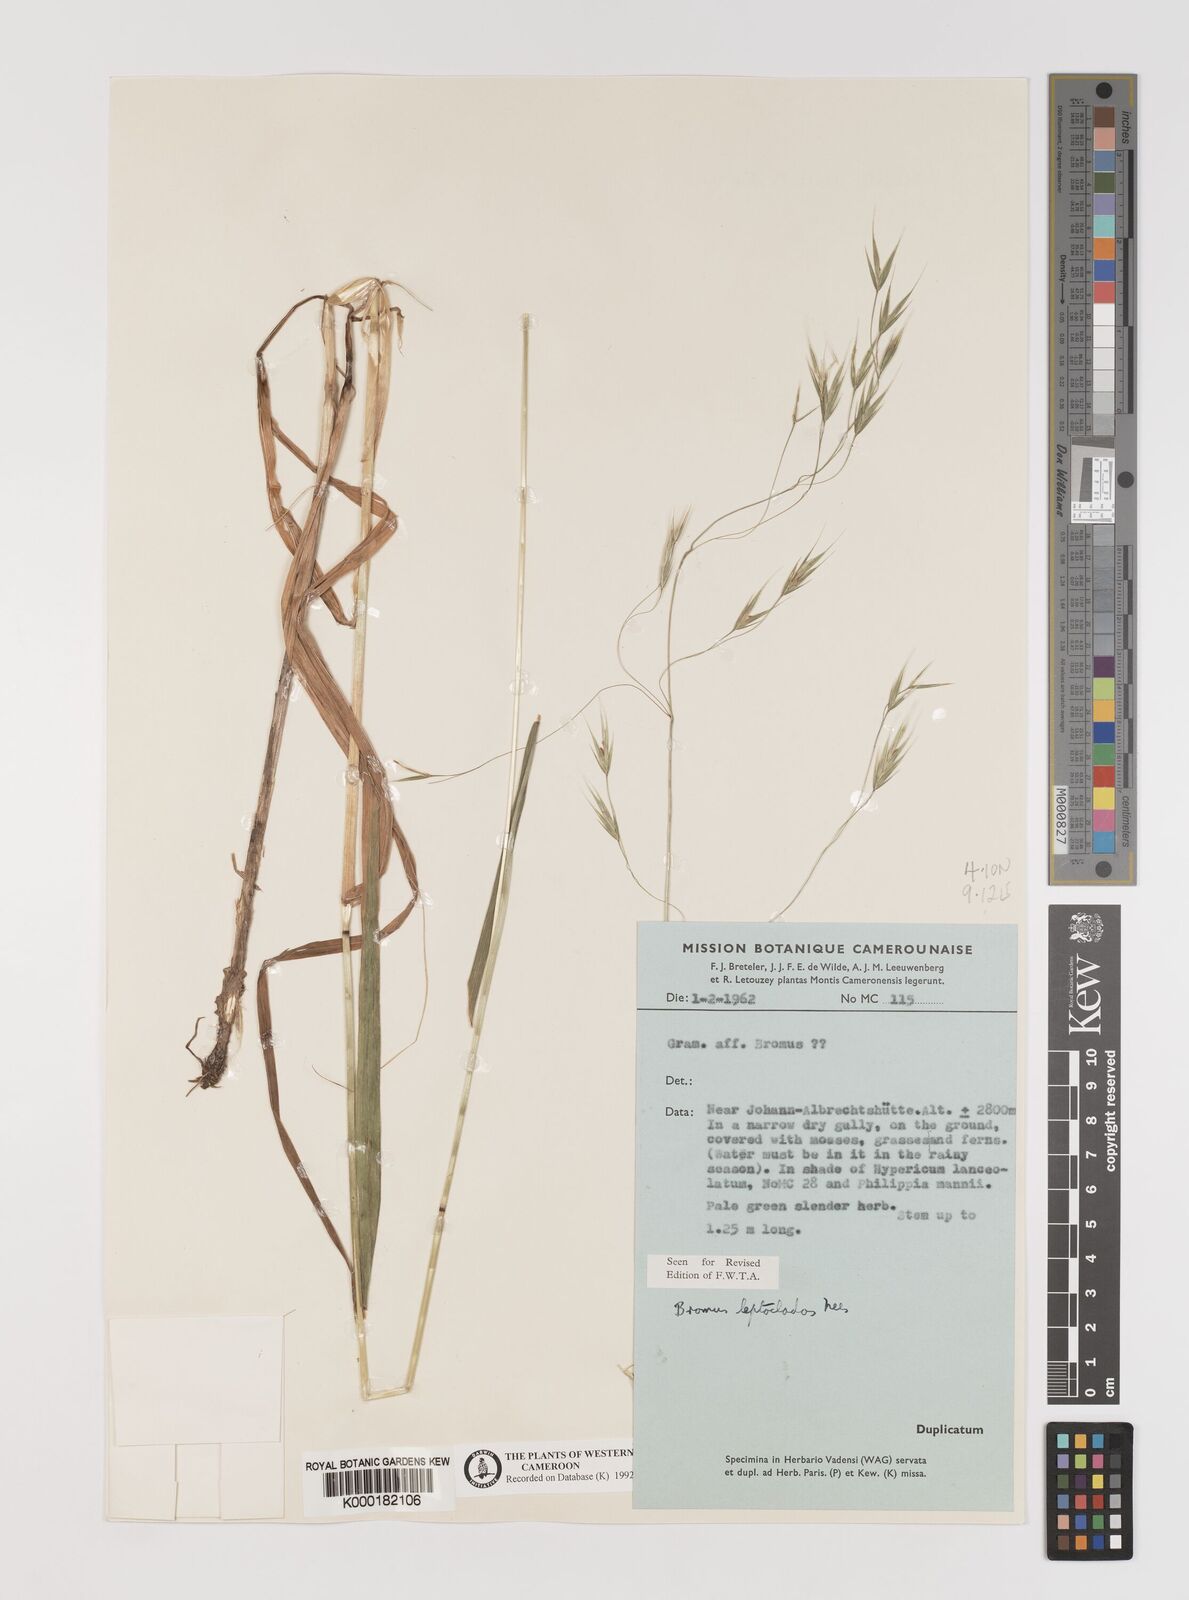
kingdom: Plantae
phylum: Tracheophyta
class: Liliopsida
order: Poales
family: Poaceae
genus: Bromus
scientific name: Bromus leptoclados
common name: Mountain bromegrass
